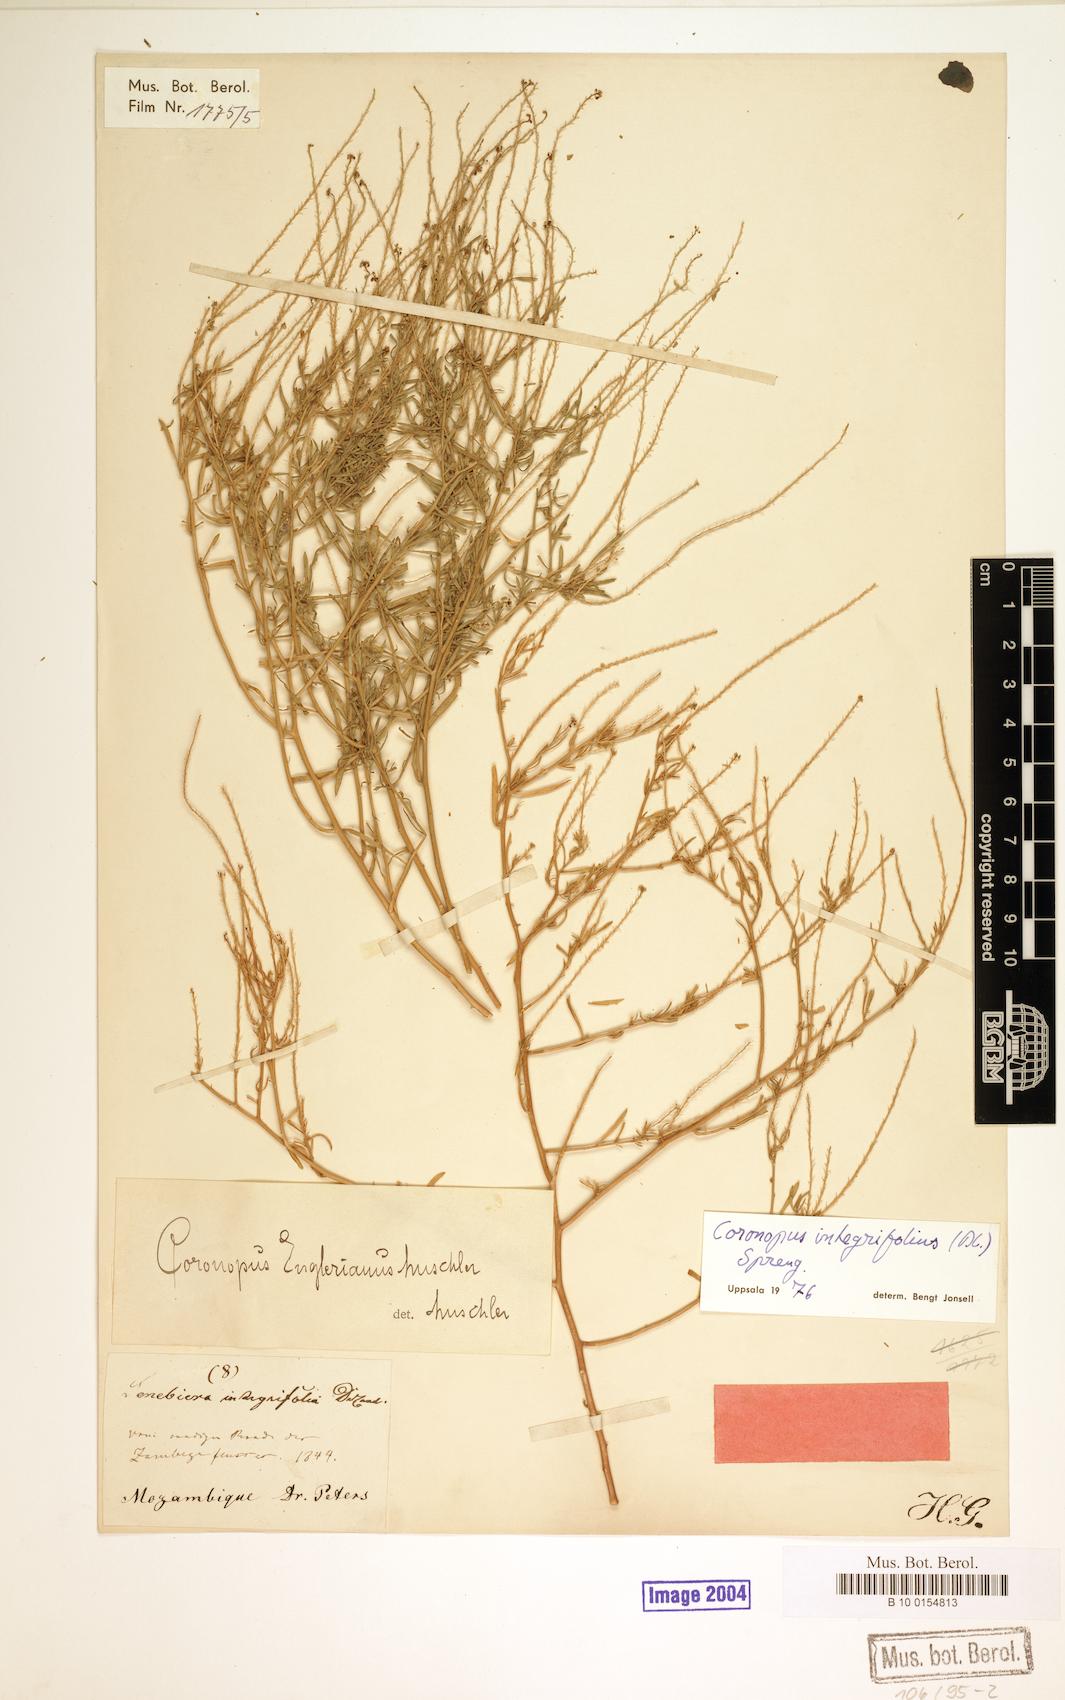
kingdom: Plantae
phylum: Tracheophyta
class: Magnoliopsida
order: Brassicales
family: Brassicaceae
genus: Lepidium
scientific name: Lepidium englerianum
